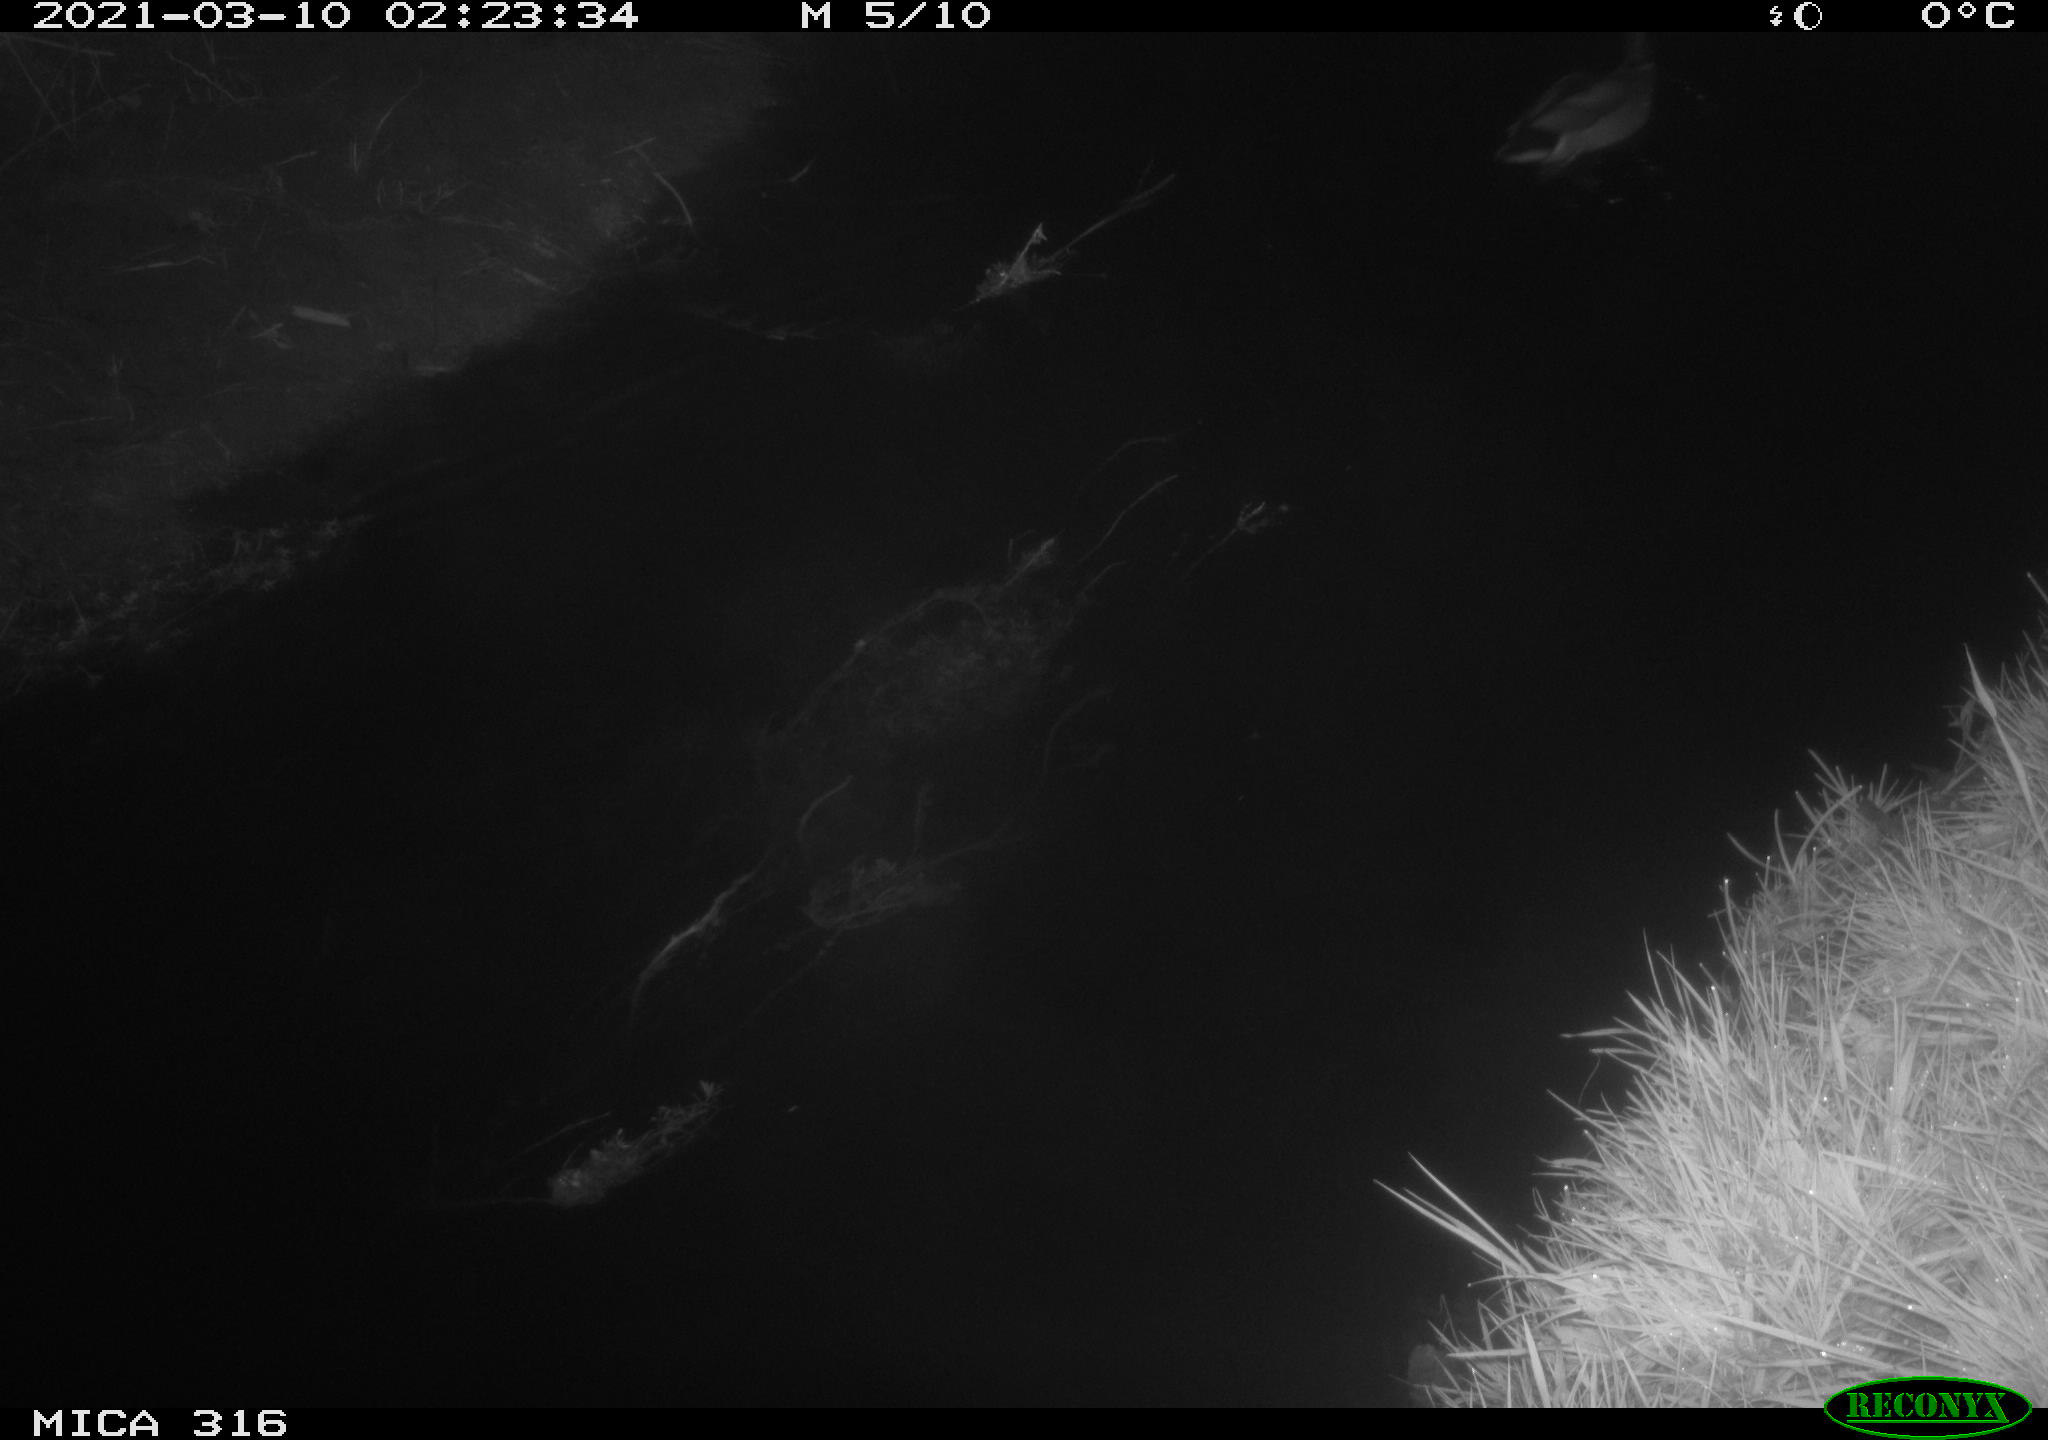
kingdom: Animalia
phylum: Chordata
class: Aves
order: Anseriformes
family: Anatidae
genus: Anas
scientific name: Anas platyrhynchos
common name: Mallard
